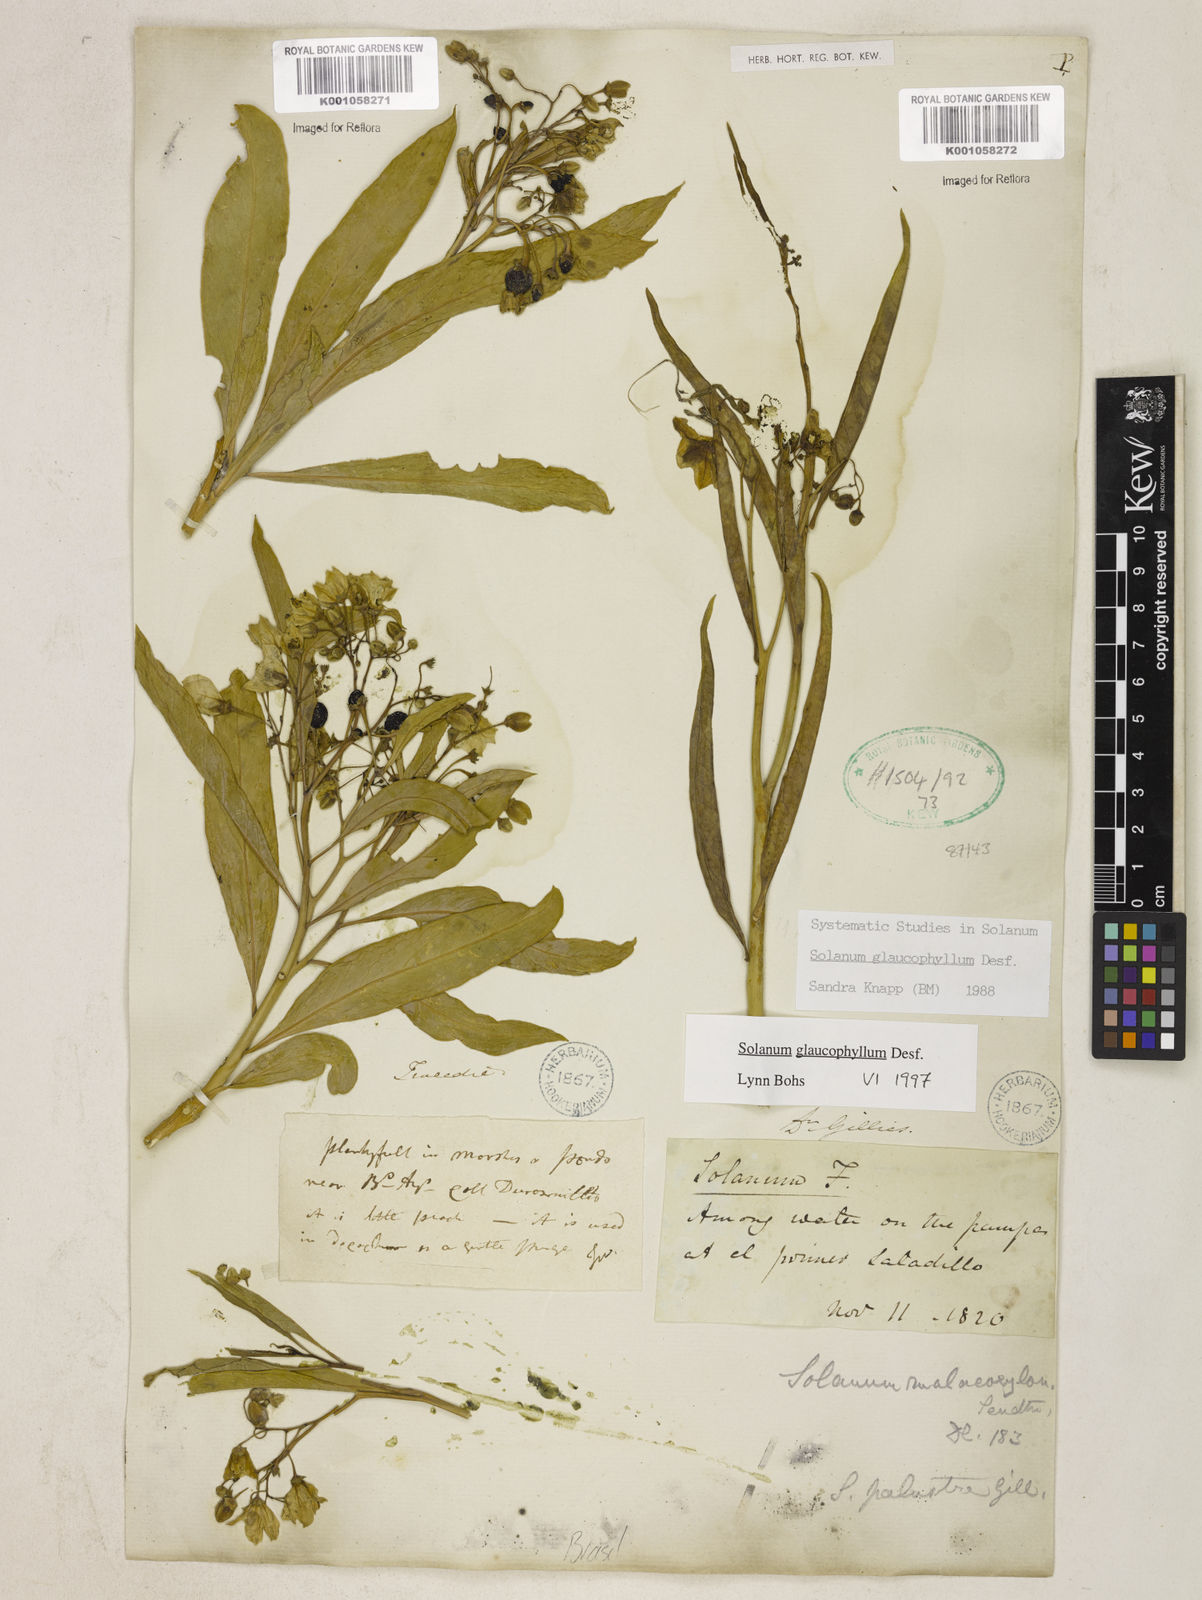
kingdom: Plantae
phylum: Tracheophyta
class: Magnoliopsida
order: Solanales
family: Solanaceae
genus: Solanum
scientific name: Solanum glaucophyllum
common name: Waxyleaf nightshade
